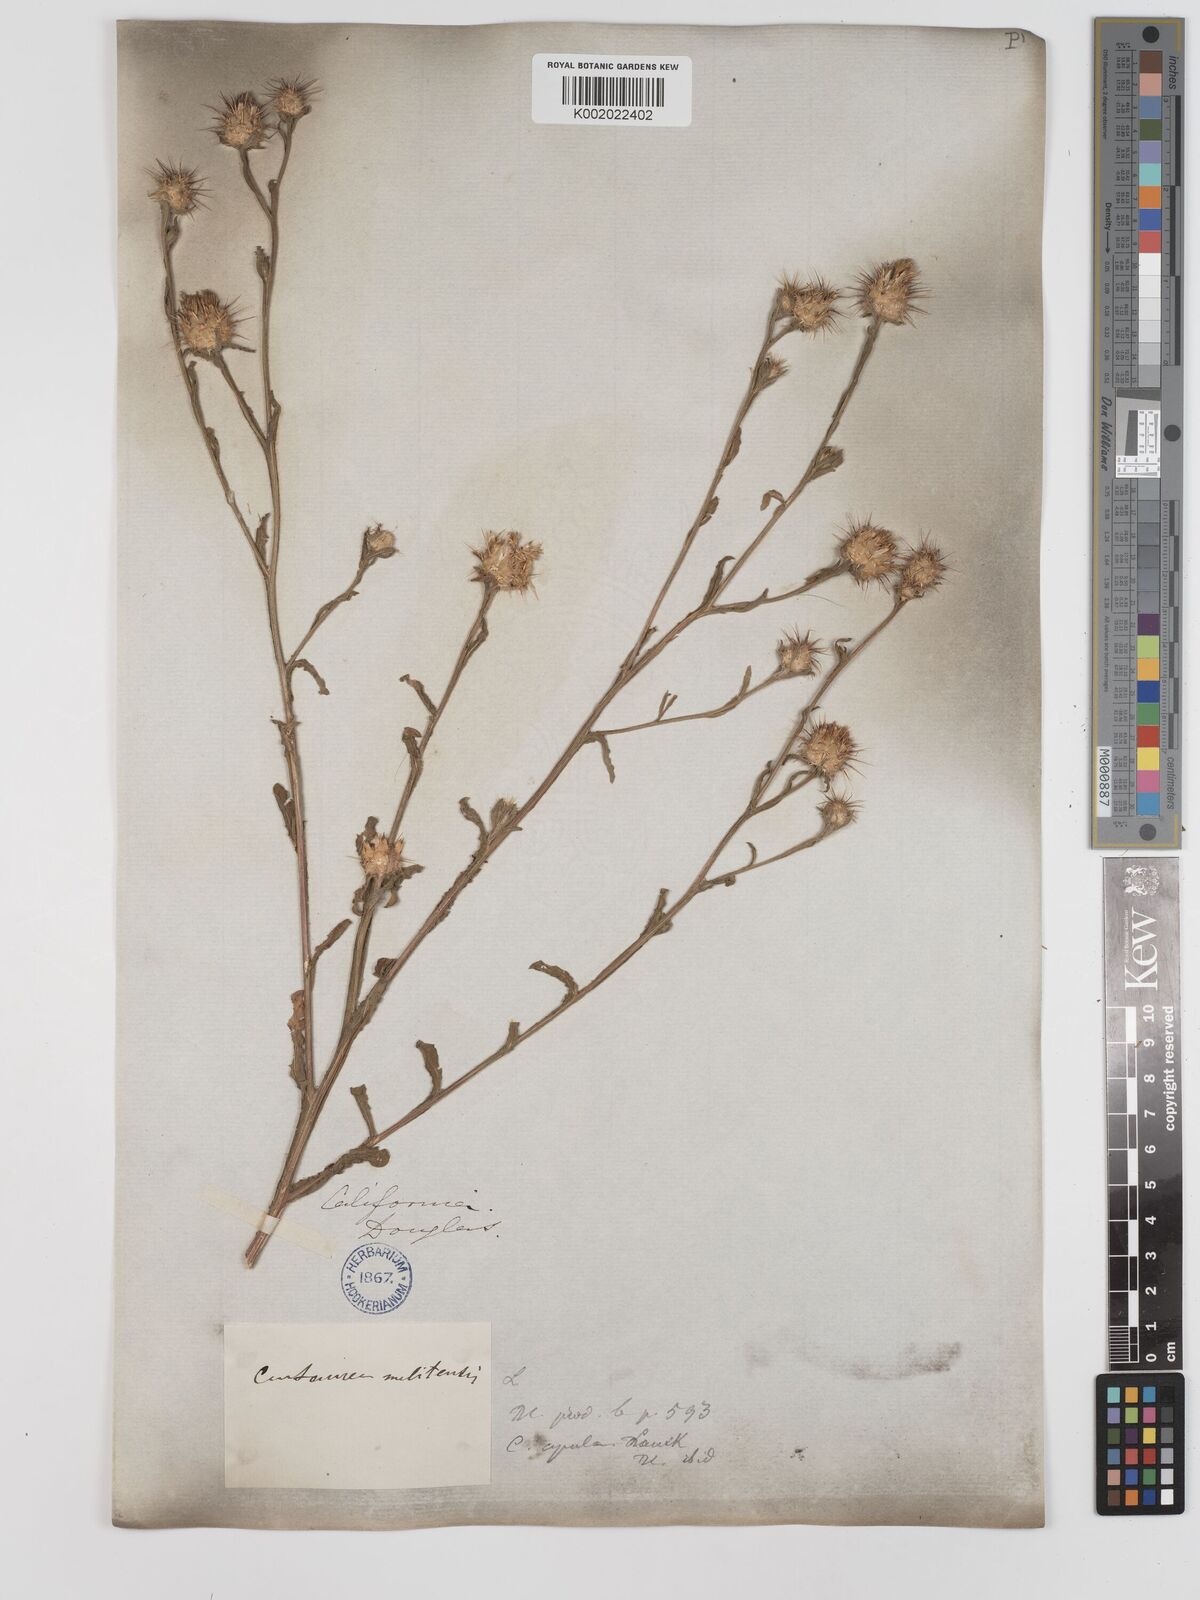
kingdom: Plantae
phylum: Tracheophyta
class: Magnoliopsida
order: Asterales
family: Asteraceae
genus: Centaurea
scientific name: Centaurea melitensis
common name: Maltese star-thistle
